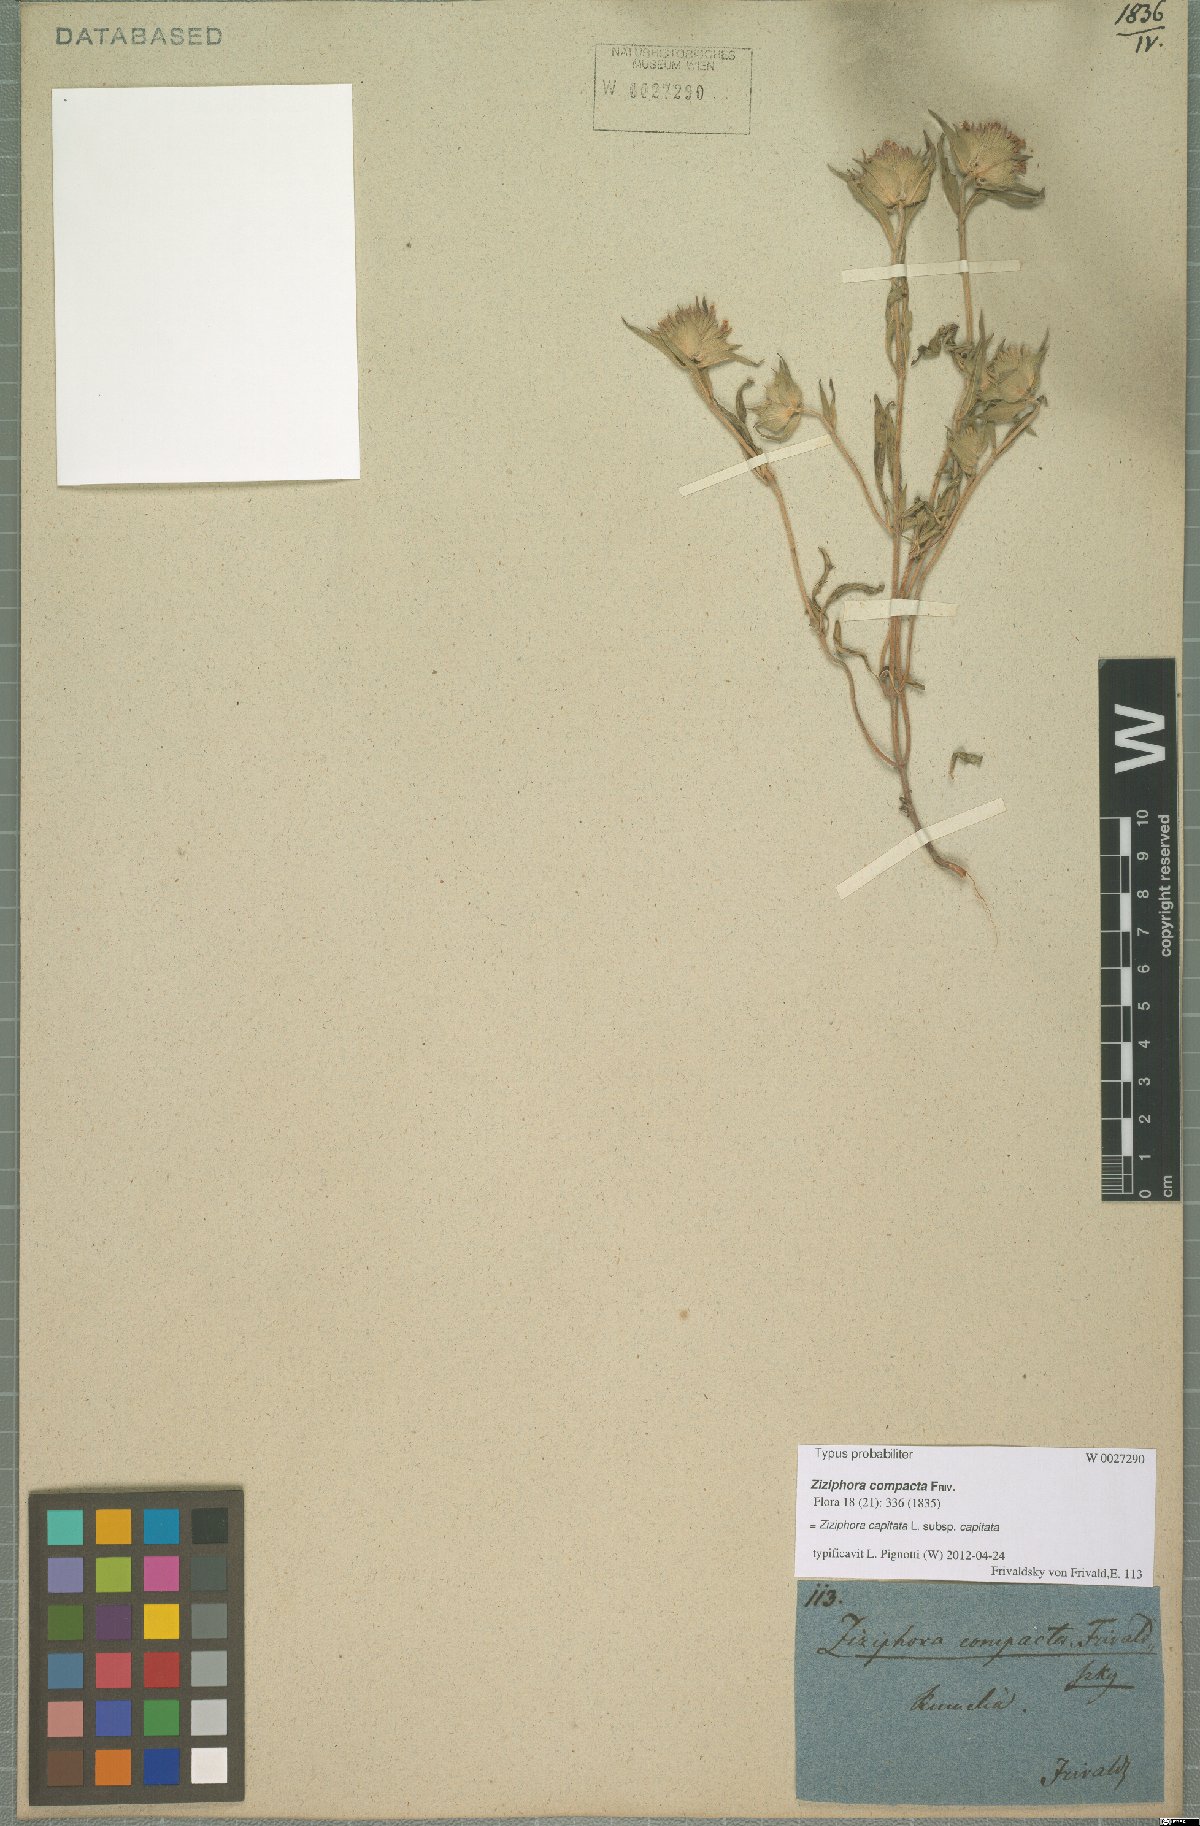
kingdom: Plantae
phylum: Tracheophyta
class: Magnoliopsida
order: Lamiales
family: Lamiaceae
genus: Ziziphora
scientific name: Ziziphora capitata
